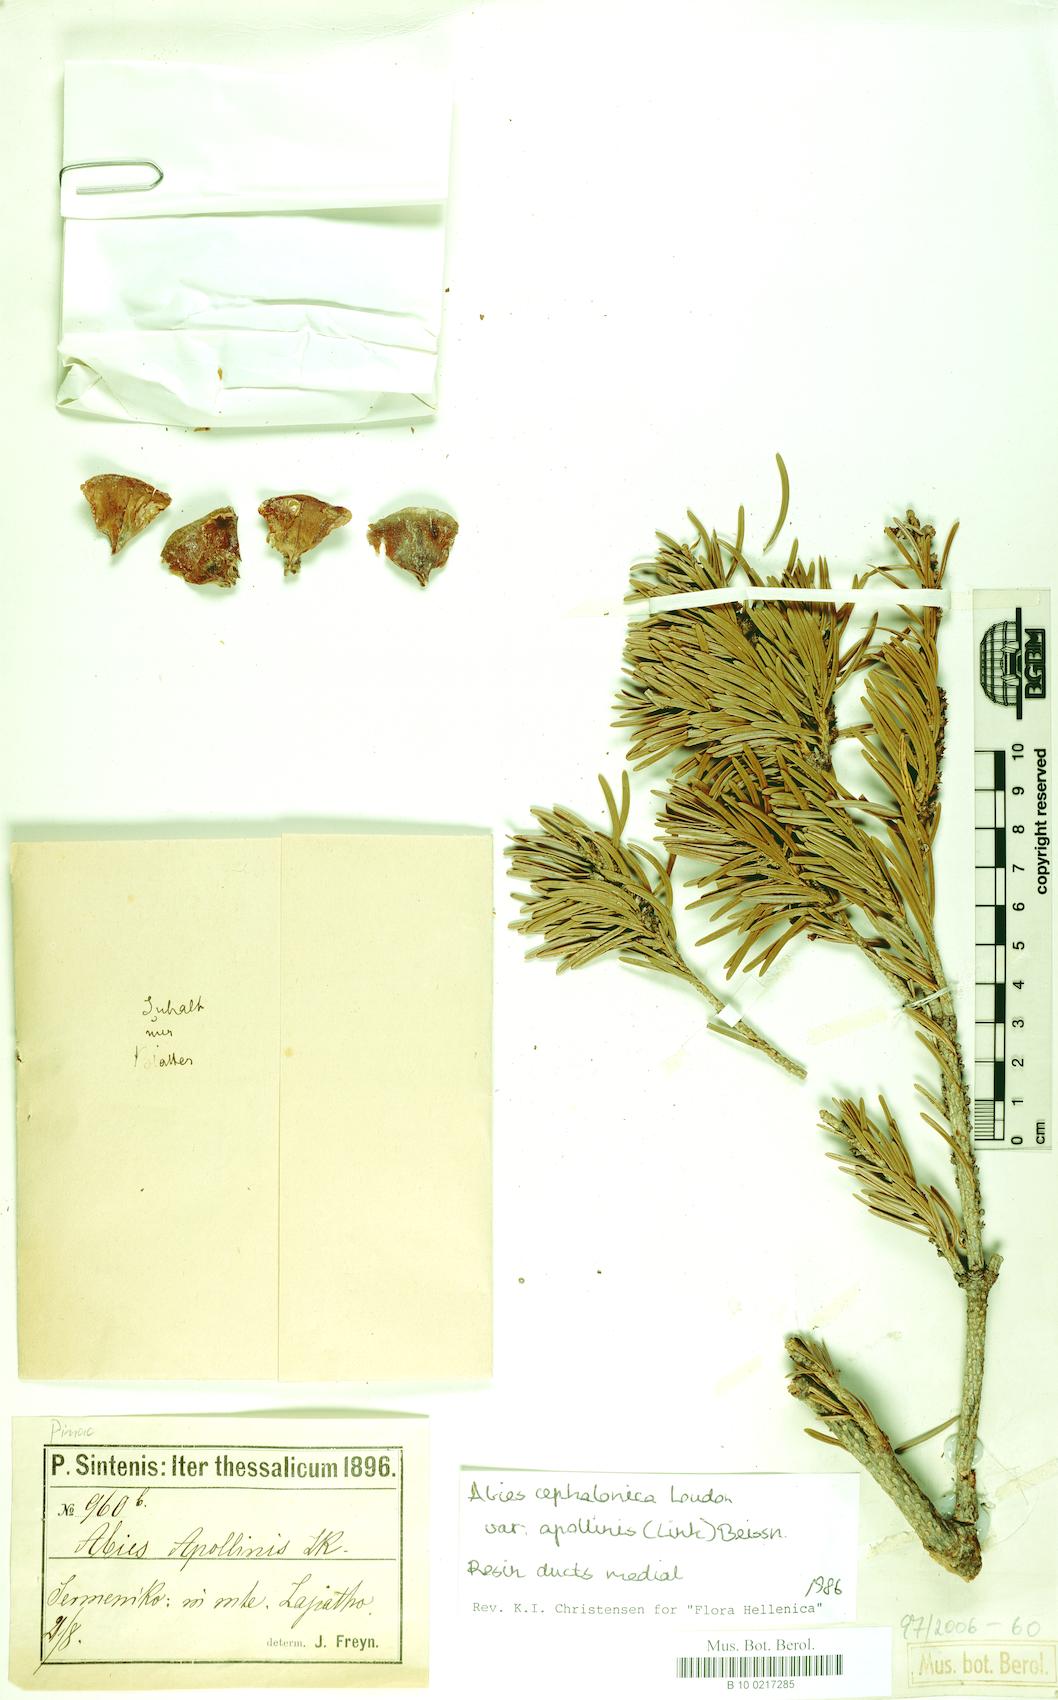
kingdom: Plantae
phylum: Tracheophyta
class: Pinopsida
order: Pinales
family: Pinaceae
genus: Abies
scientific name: Abies cephalonica
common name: Greek fir
